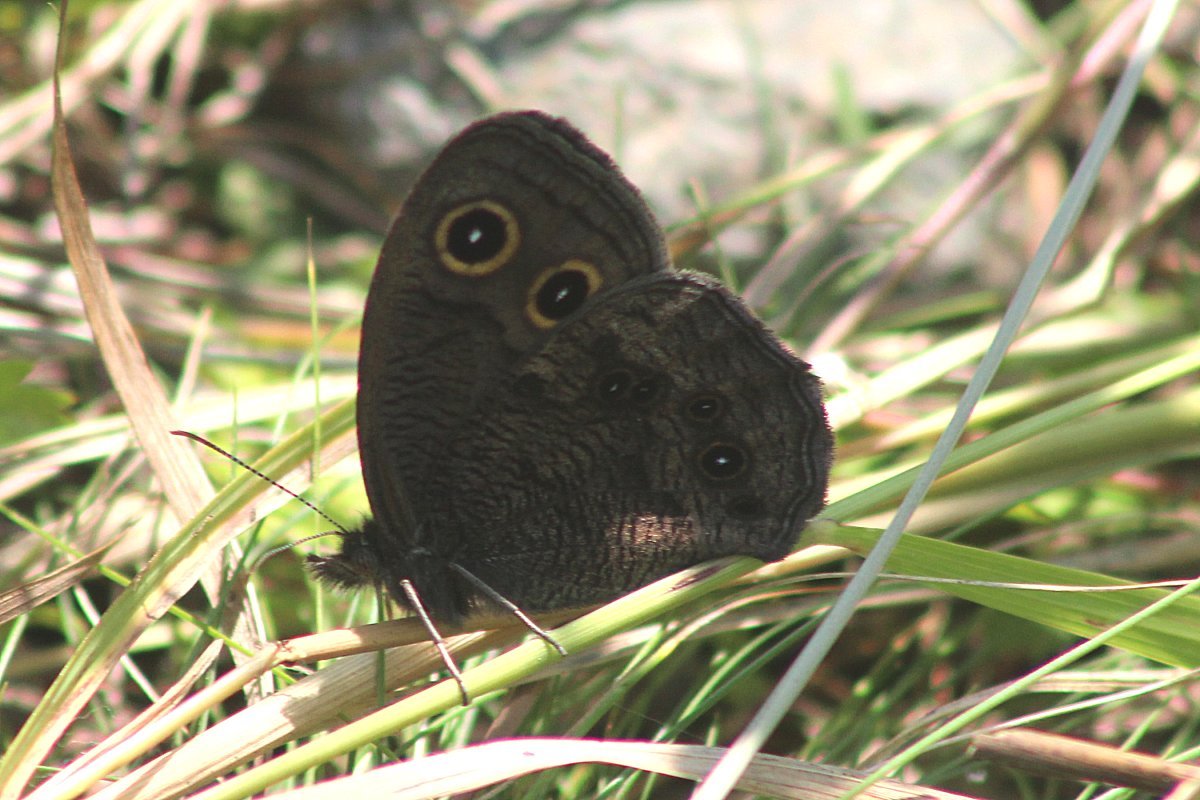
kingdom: Animalia
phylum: Arthropoda
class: Insecta
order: Lepidoptera
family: Nymphalidae
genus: Cercyonis
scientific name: Cercyonis pegala
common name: Common Wood-Nymph
